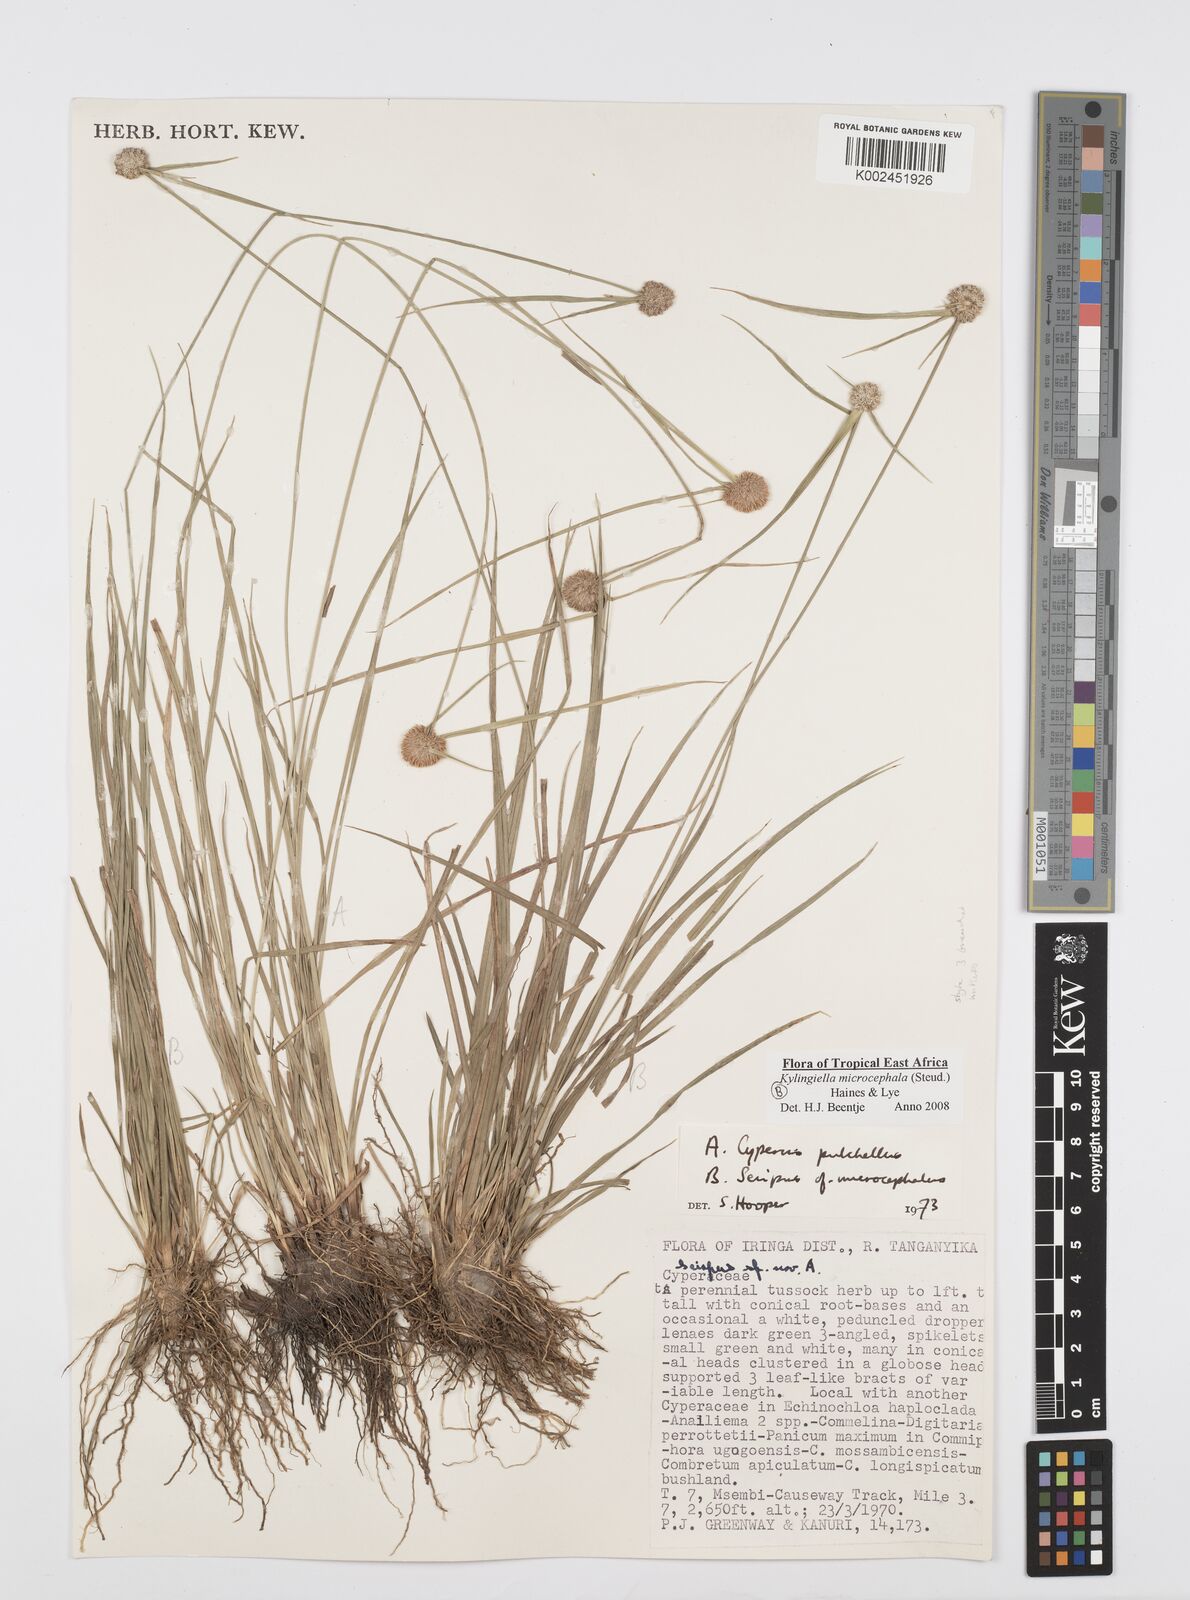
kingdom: Plantae
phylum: Tracheophyta
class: Liliopsida
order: Poales
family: Cyperaceae
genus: Cyperus
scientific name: Cyperus microcephalus
